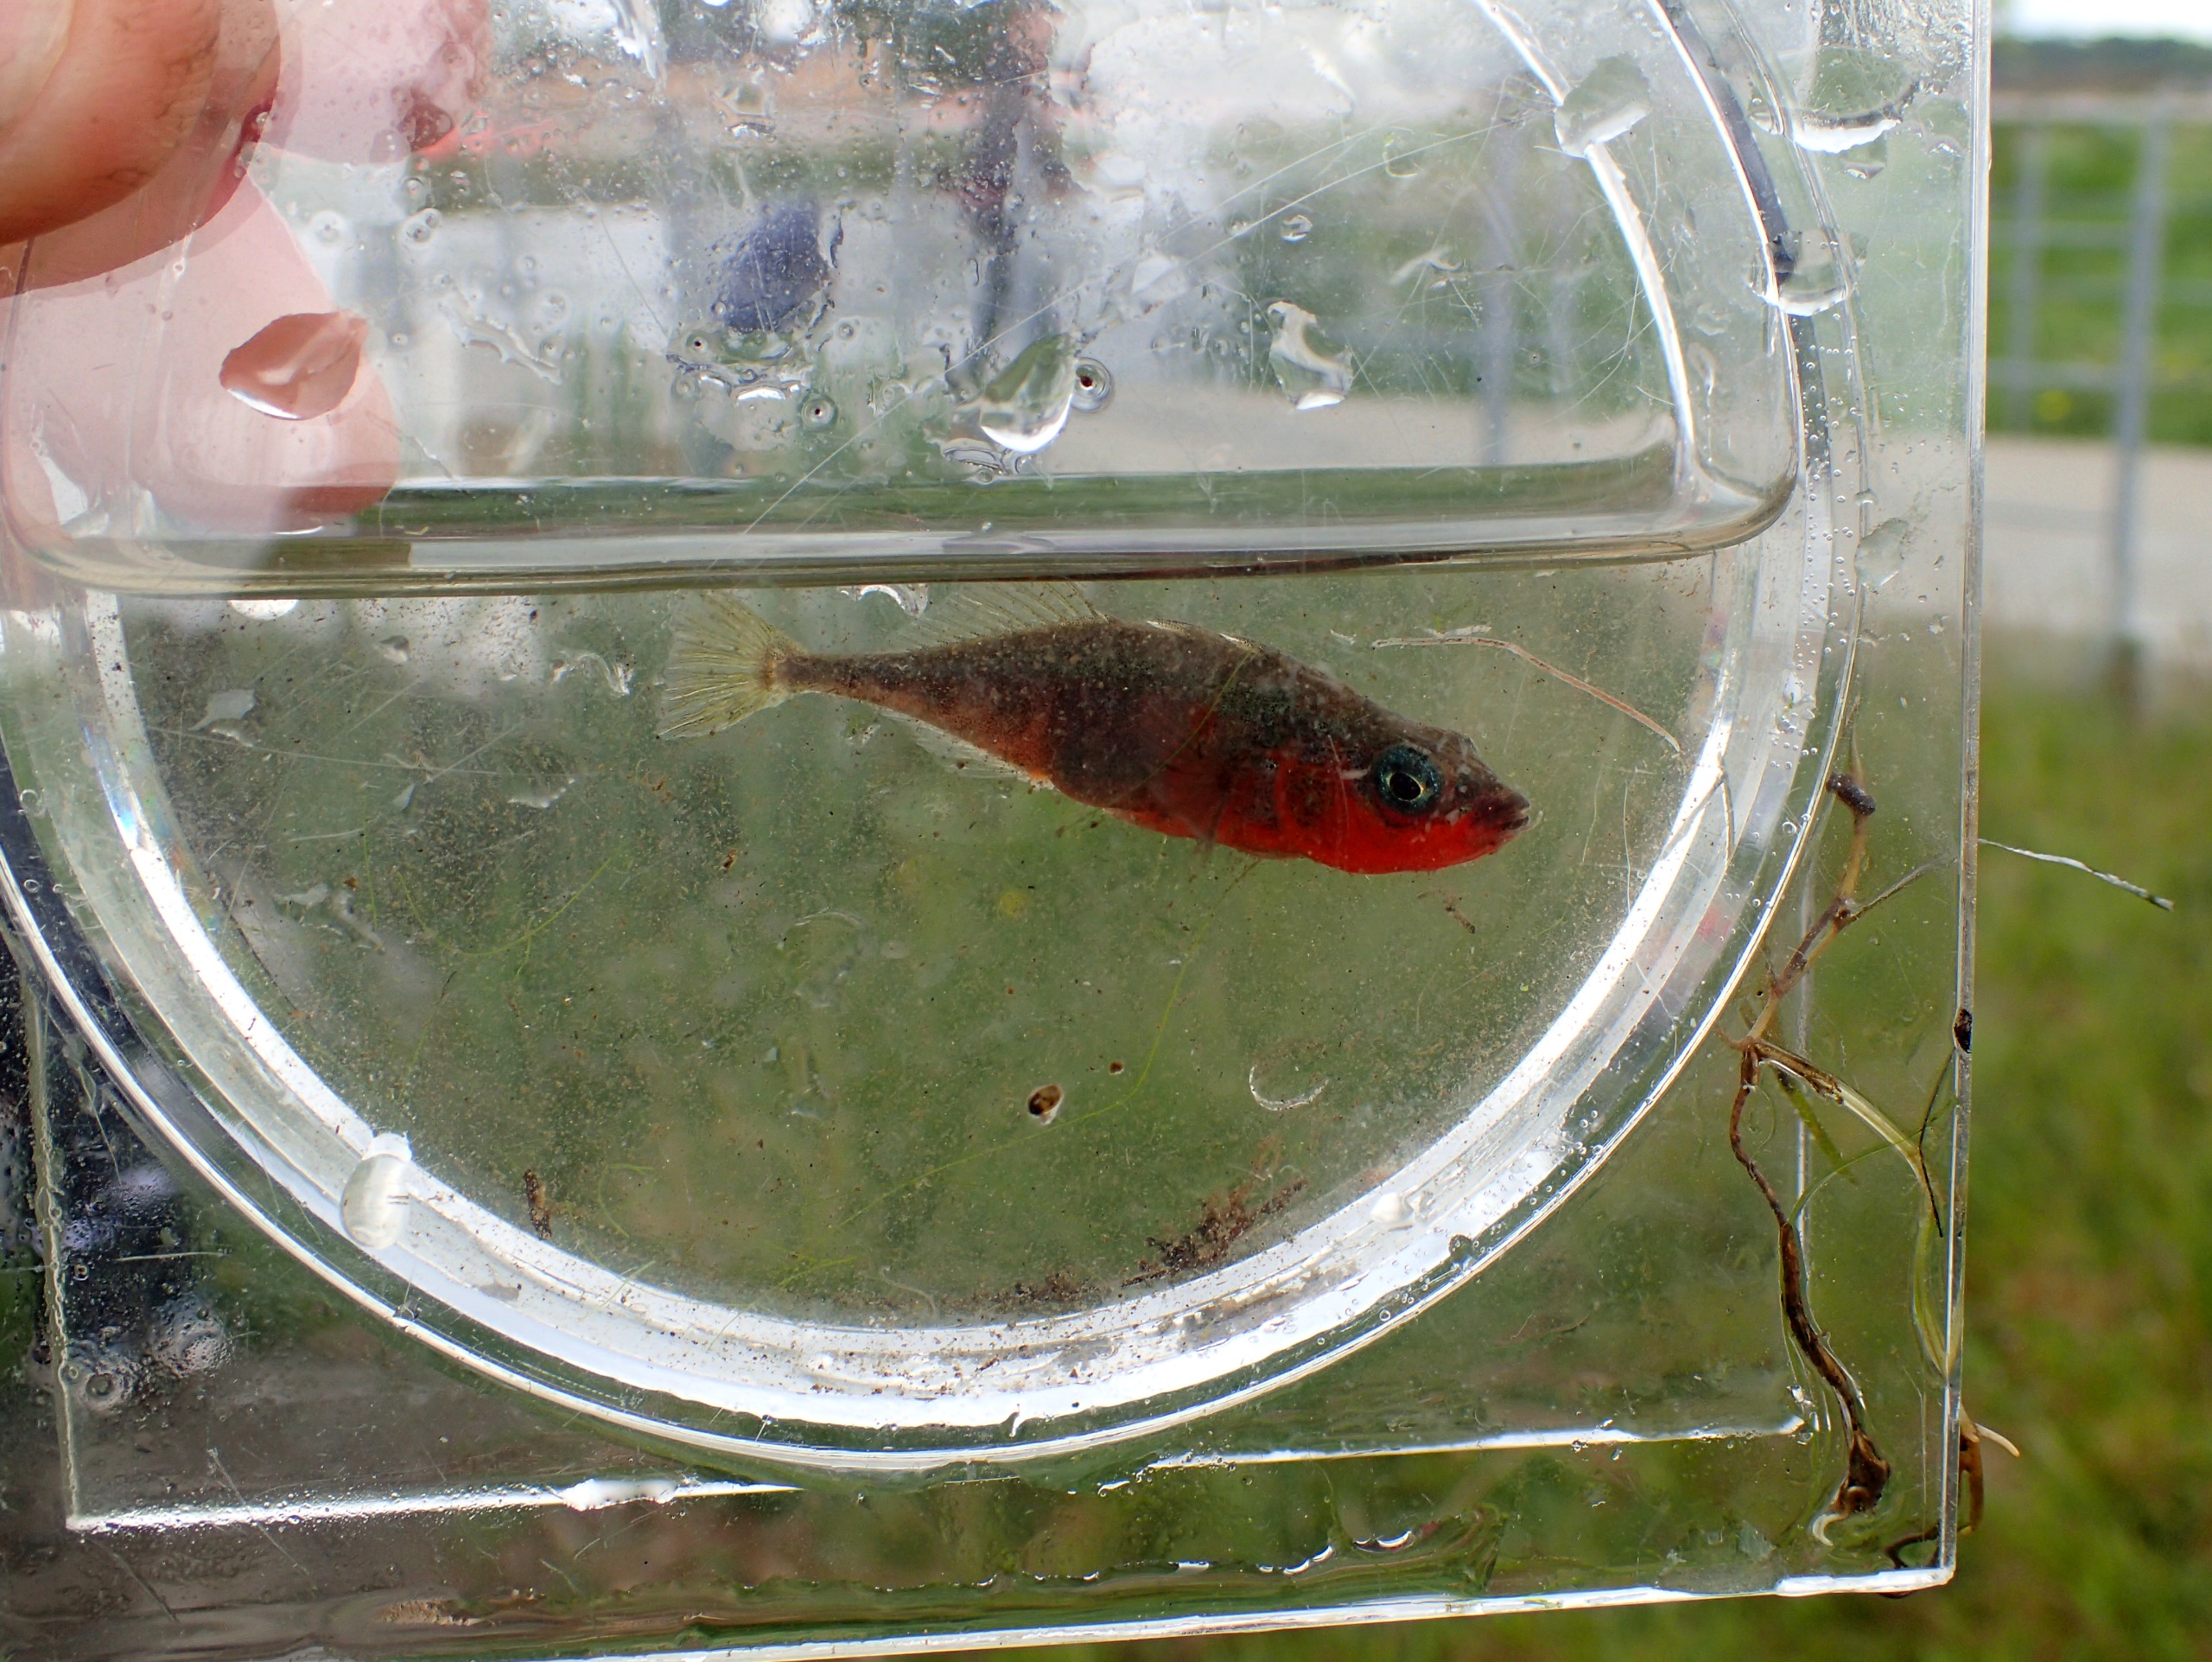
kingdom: Animalia
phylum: Chordata
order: Gasterosteiformes
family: Gasterosteidae
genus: Gasterosteus
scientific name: Gasterosteus aculeatus
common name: Trepigget hundestejle
